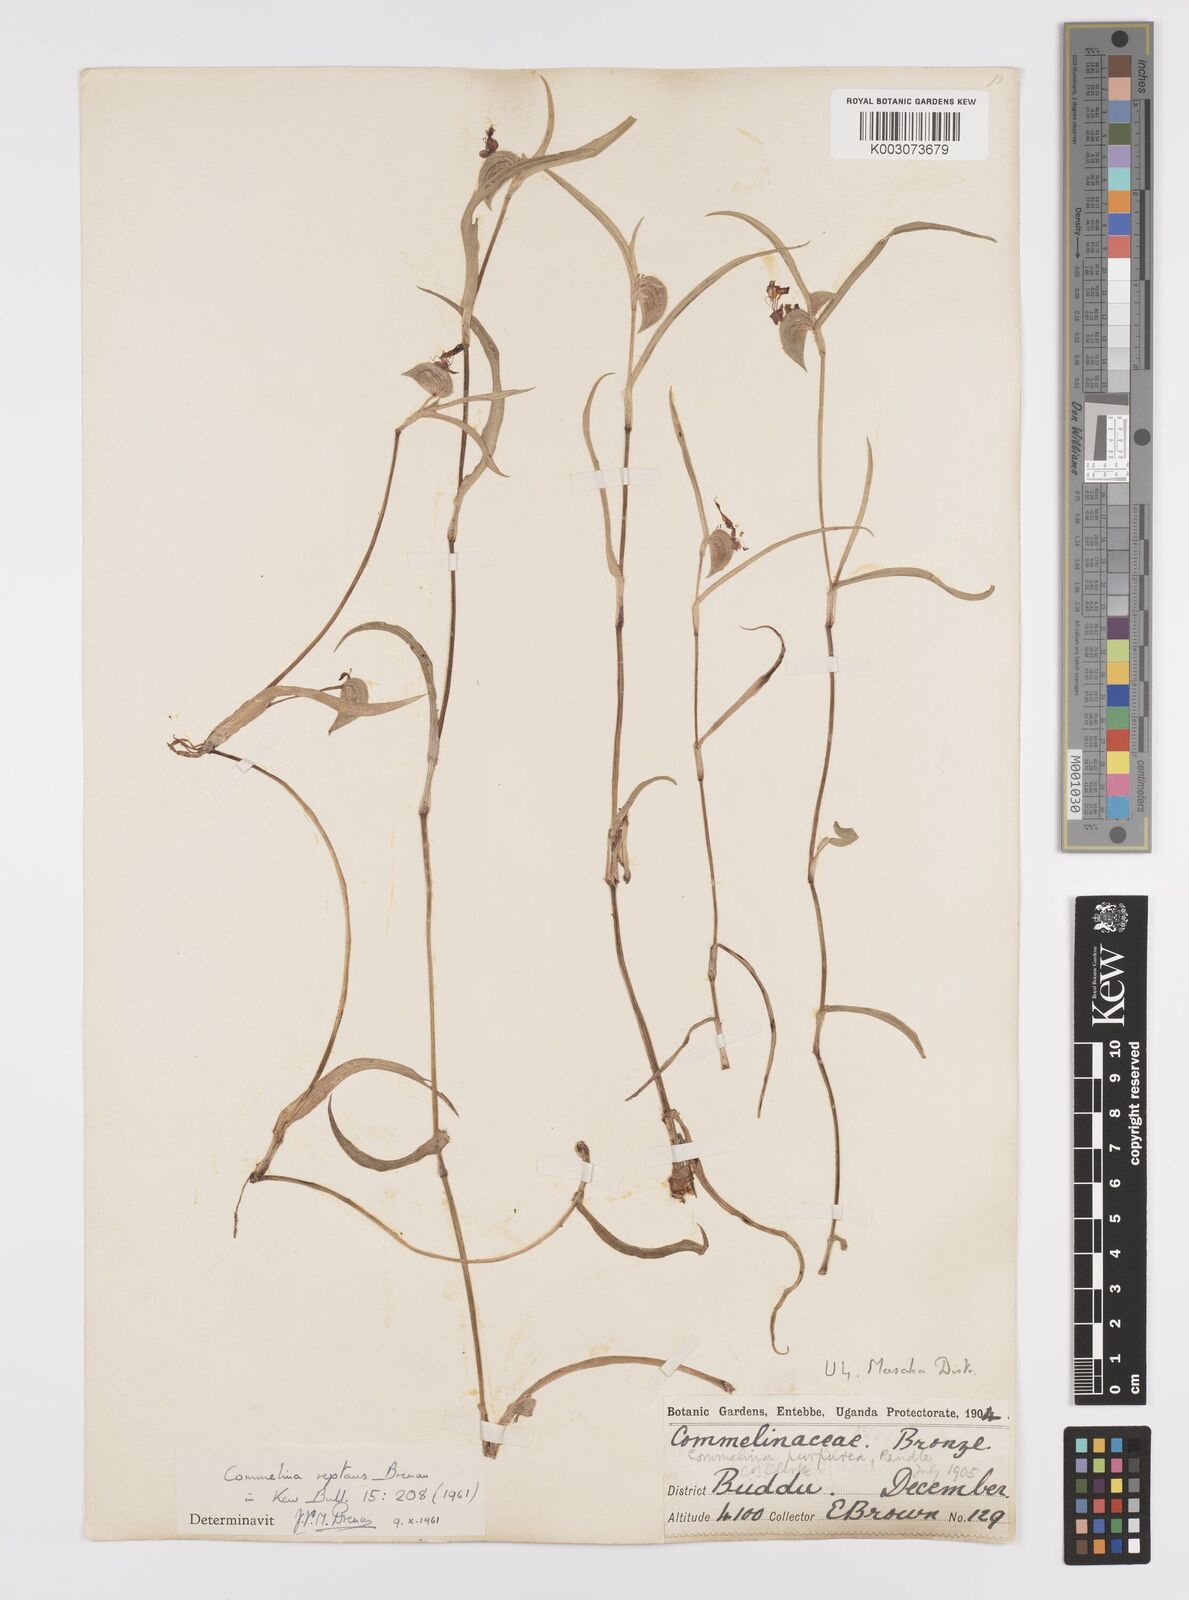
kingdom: Plantae
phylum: Tracheophyta
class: Liliopsida
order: Commelinales
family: Commelinaceae
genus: Commelina
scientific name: Commelina reptans
